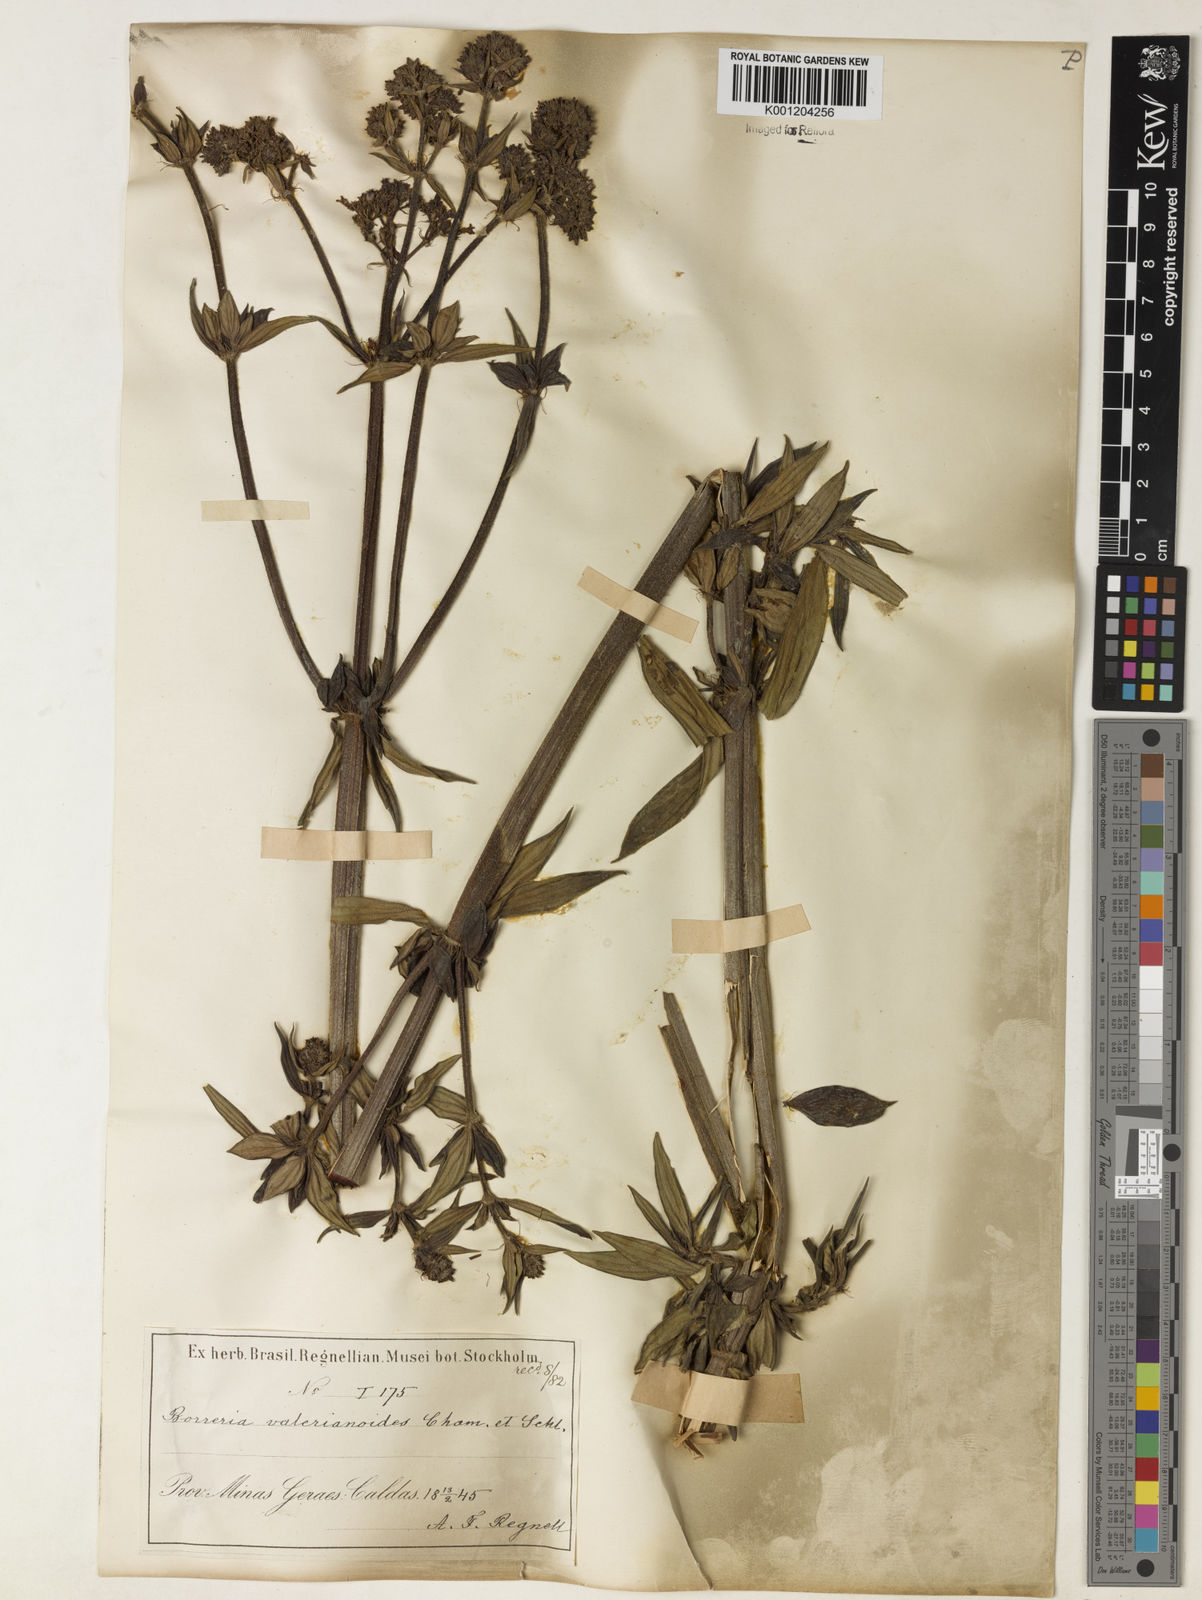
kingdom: Plantae
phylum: Tracheophyta
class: Magnoliopsida
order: Gentianales
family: Rubiaceae
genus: Galianthe
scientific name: Galianthe valerianoides
